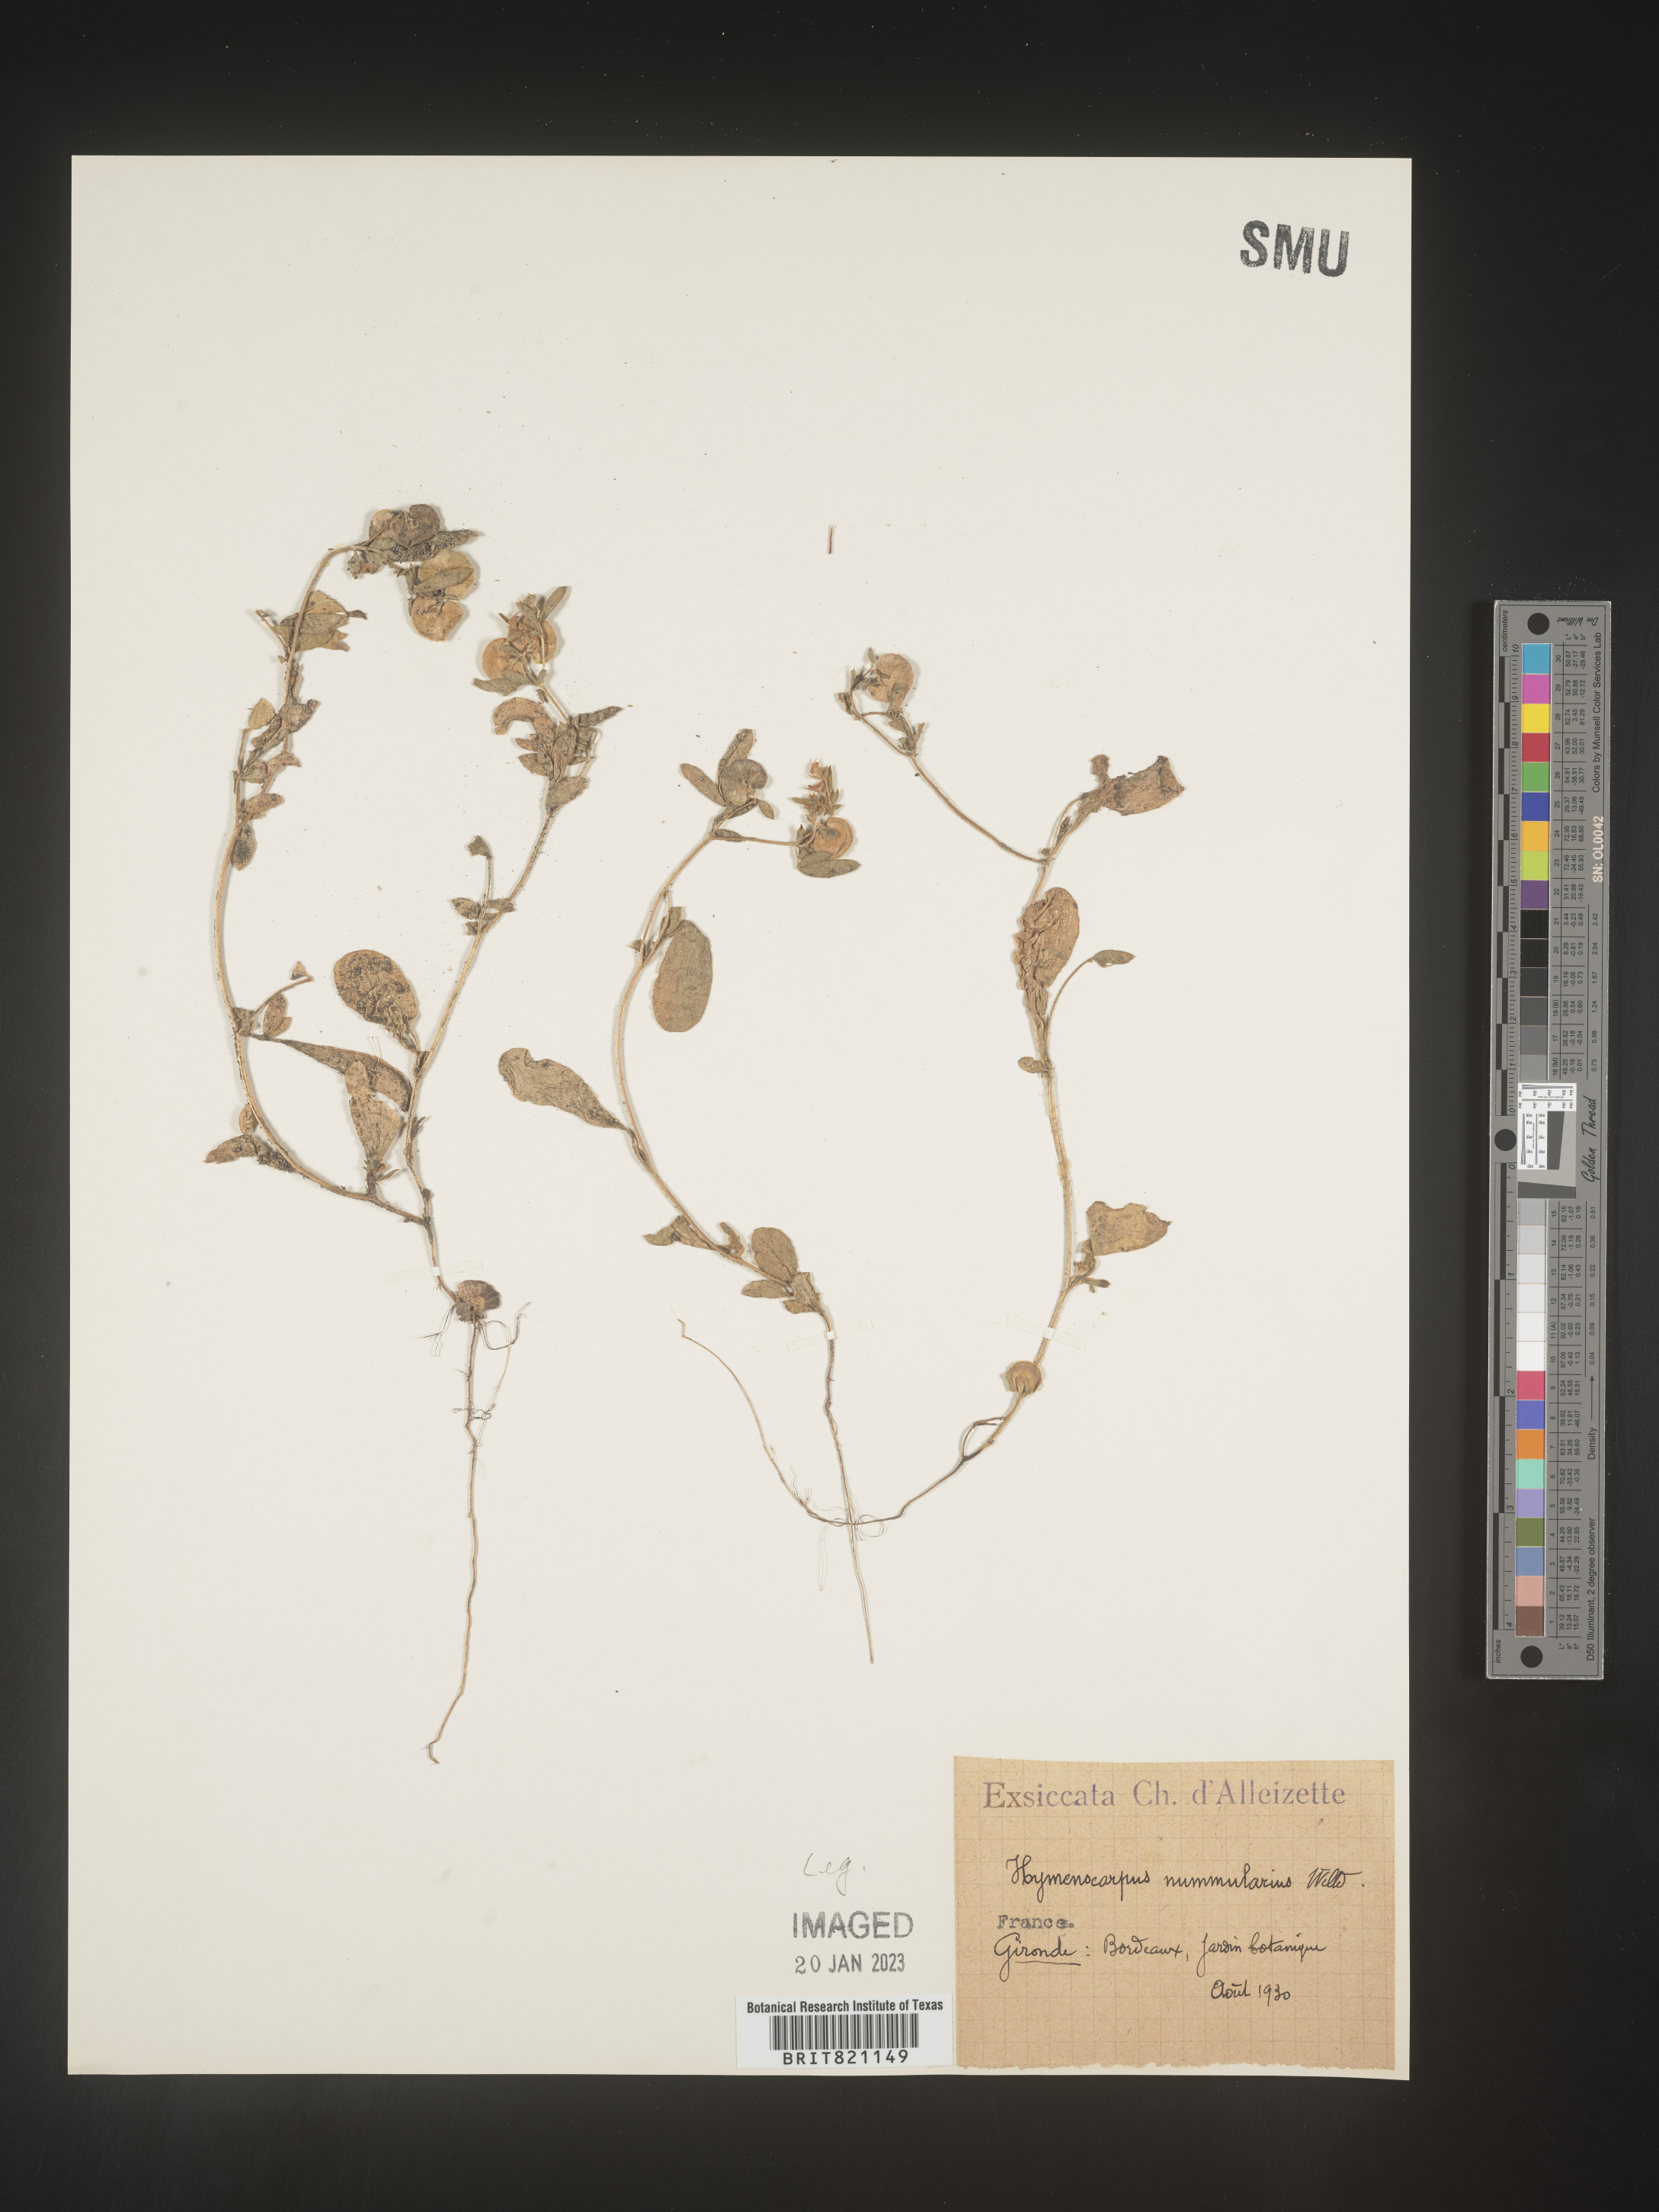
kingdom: Plantae
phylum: Tracheophyta
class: Magnoliopsida
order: Fabales
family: Fabaceae
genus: Anthyllis
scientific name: Anthyllis Hymenocarpos spec
